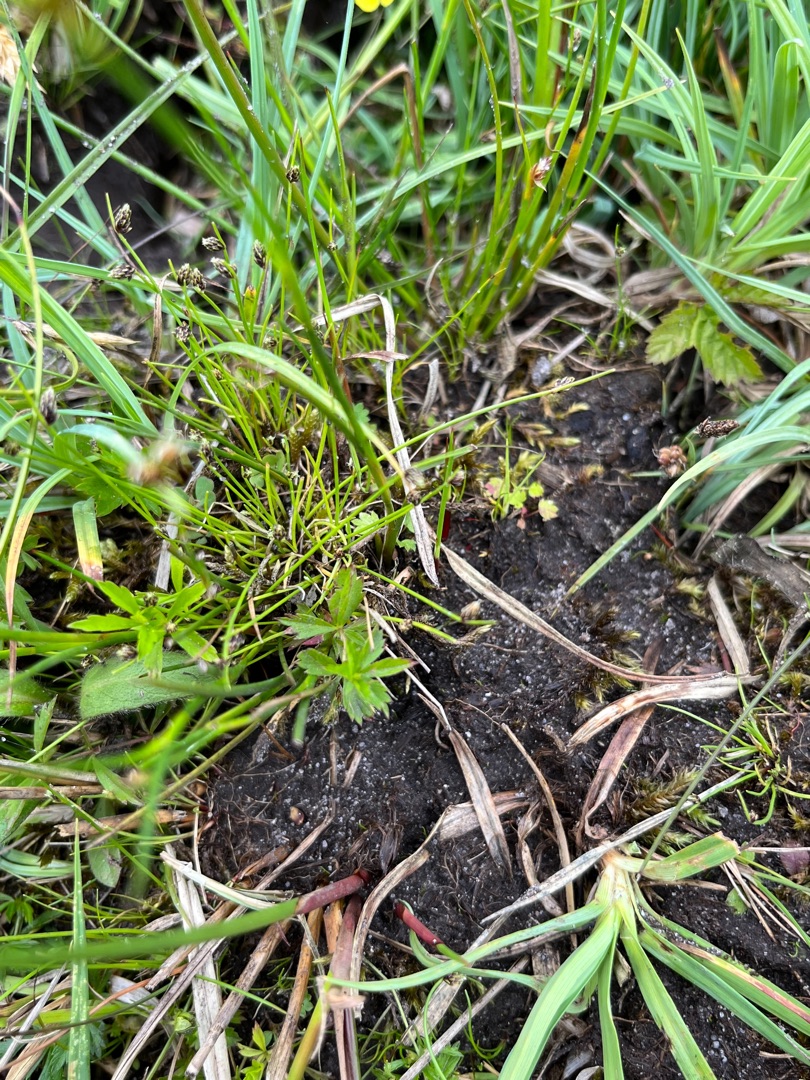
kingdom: Plantae
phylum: Tracheophyta
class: Liliopsida
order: Poales
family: Cyperaceae
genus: Isolepis
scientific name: Isolepis setacea
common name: Børste-kogleaks
